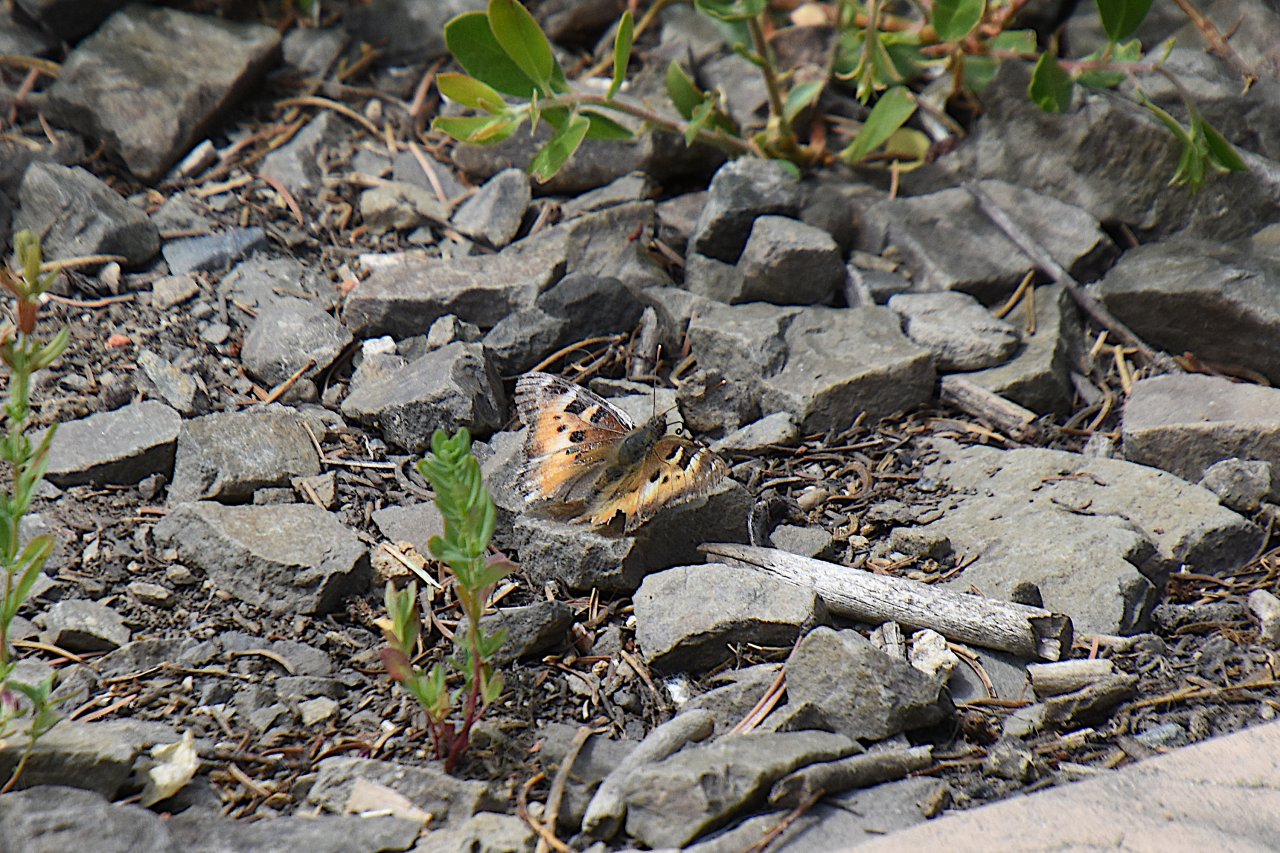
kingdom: Animalia
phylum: Arthropoda
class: Insecta
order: Lepidoptera
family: Nymphalidae
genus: Nymphalis
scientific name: Nymphalis californica
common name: California Tortoiseshell
